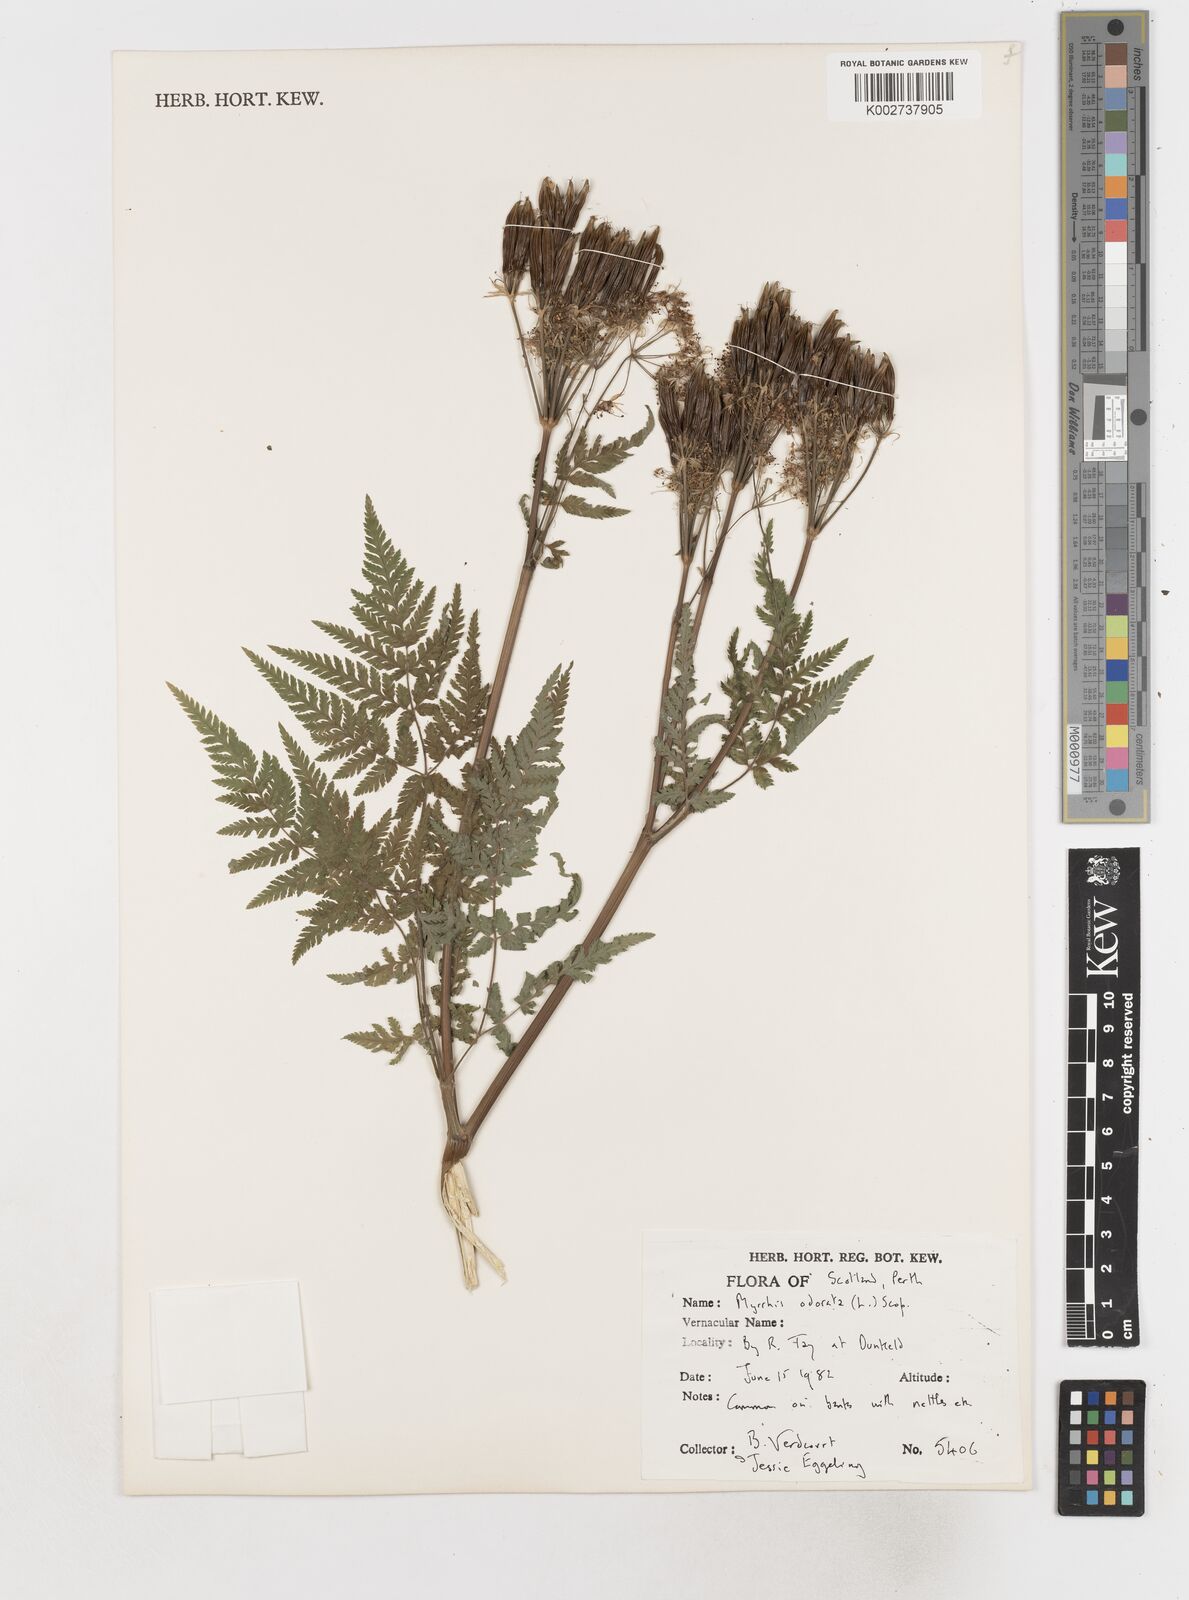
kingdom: Plantae
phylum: Tracheophyta
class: Magnoliopsida
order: Apiales
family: Apiaceae
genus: Myrrhis
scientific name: Myrrhis odorata
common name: Sweet cicely
